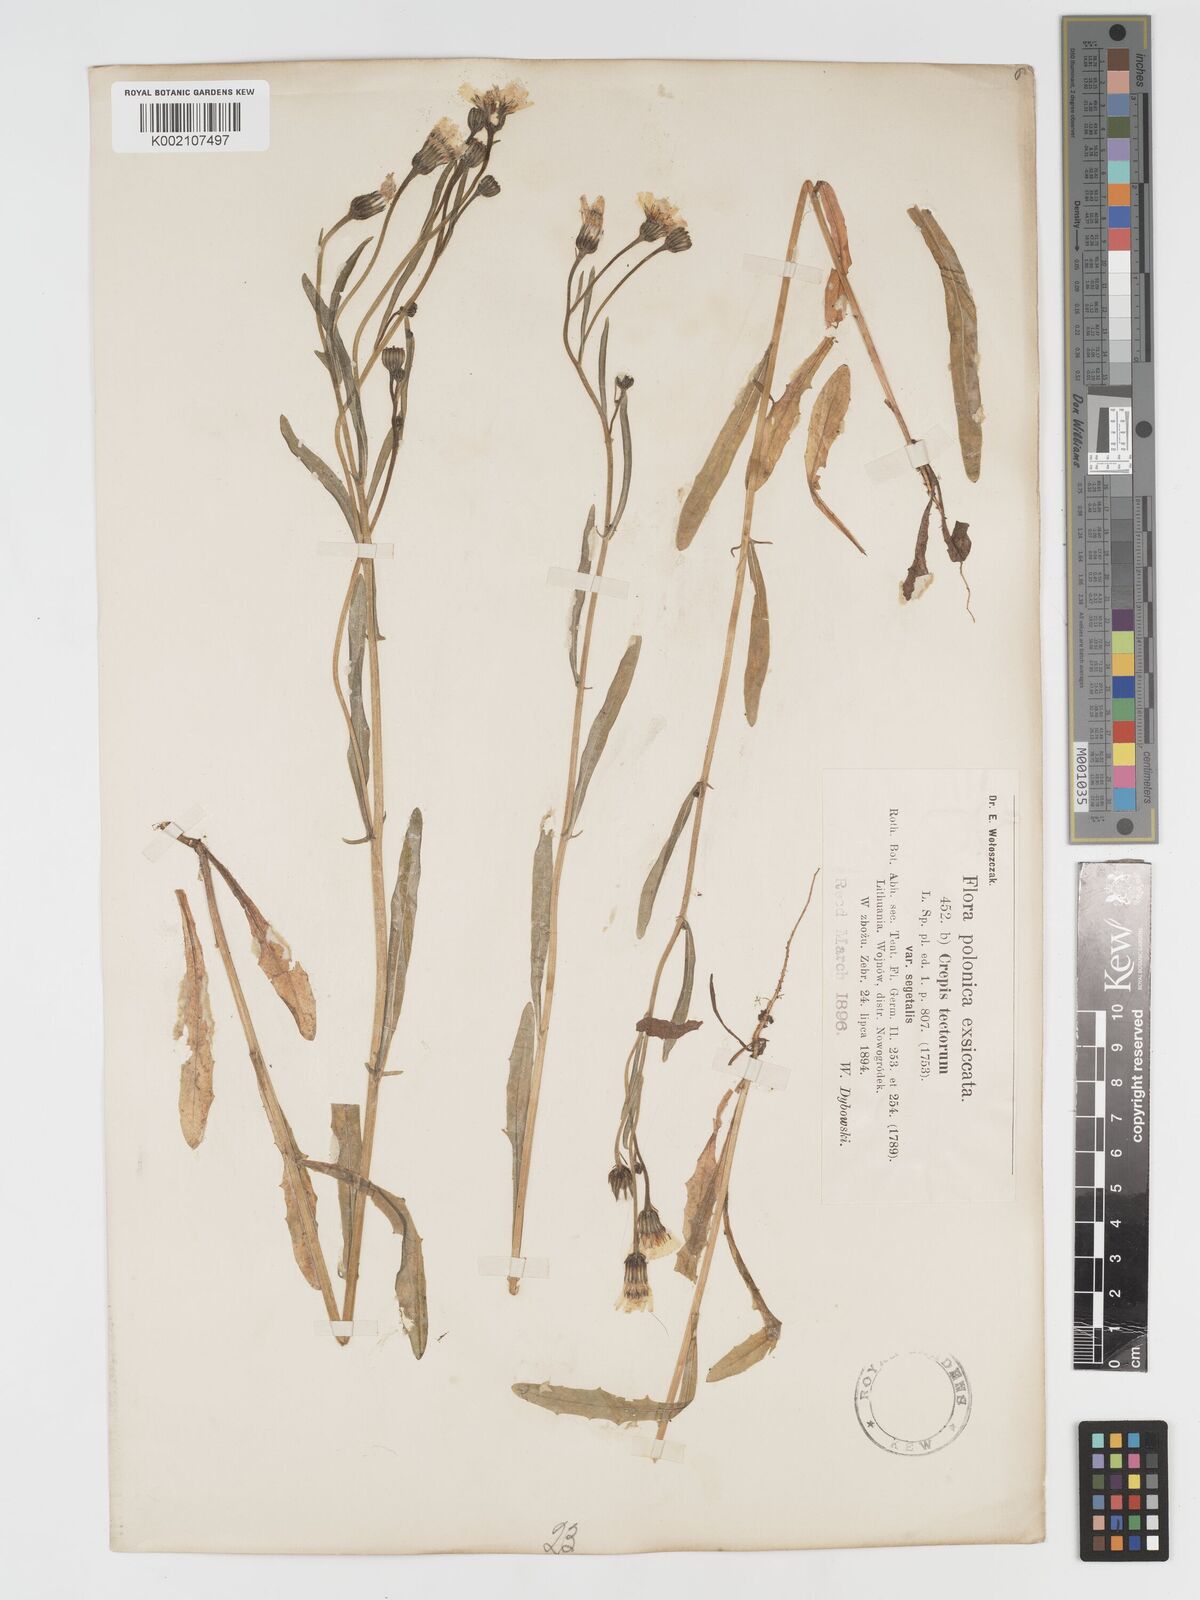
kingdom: Plantae
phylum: Tracheophyta
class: Magnoliopsida
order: Asterales
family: Asteraceae
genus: Crepis
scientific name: Crepis tectorum
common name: Narrow-leaved hawk's-beard
